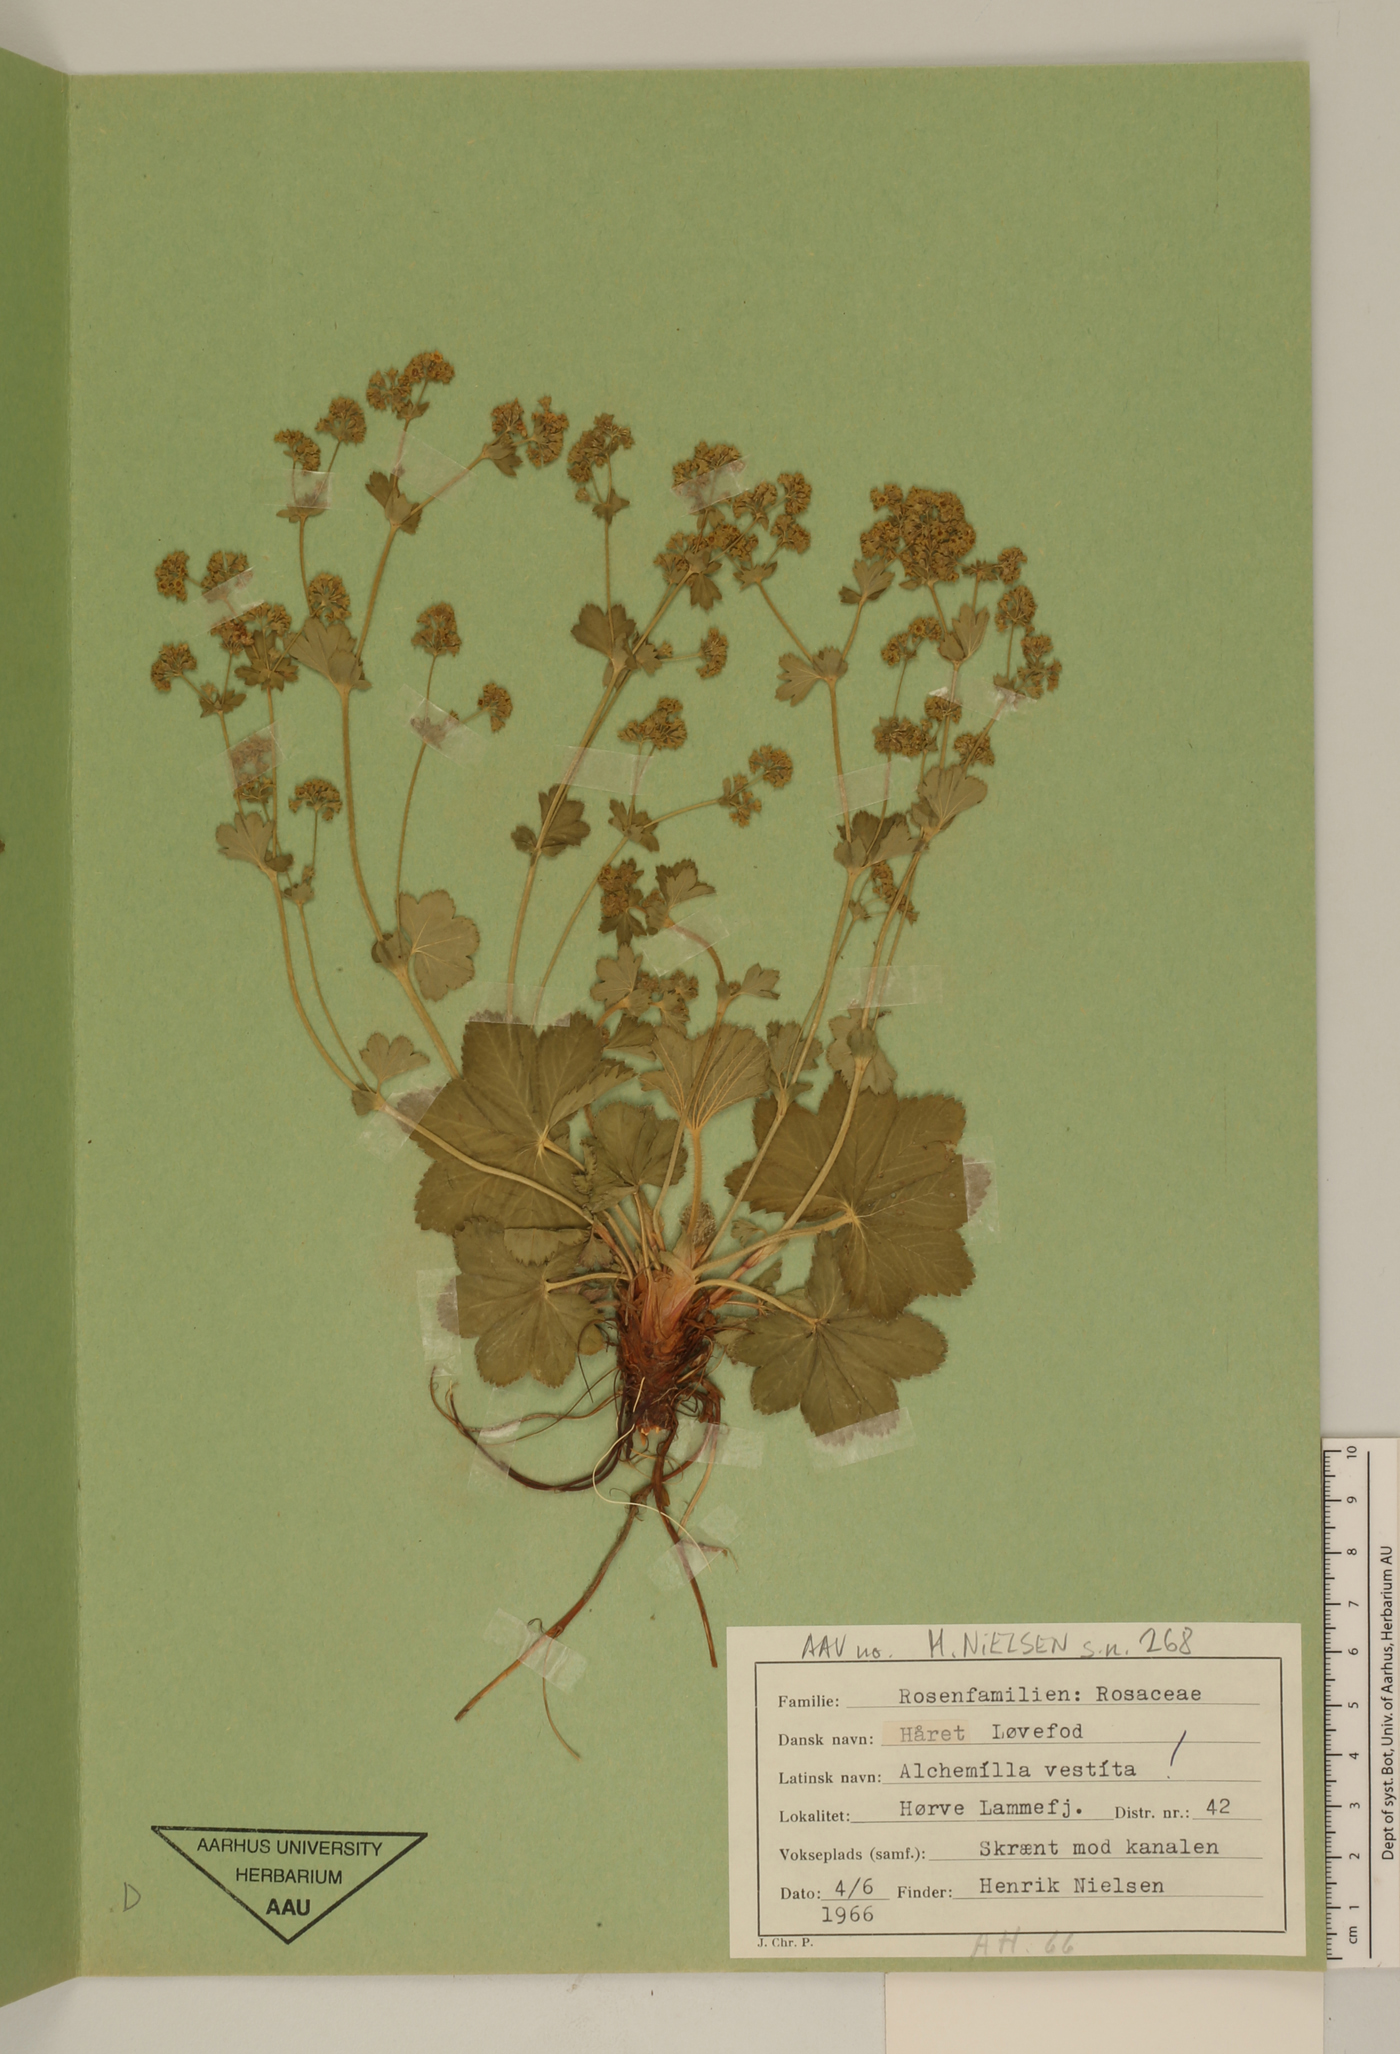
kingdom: Plantae
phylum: Tracheophyta
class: Magnoliopsida
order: Rosales
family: Rosaceae
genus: Alchemilla
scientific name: Alchemilla filicaulis
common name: Hairy lady's-mantle
